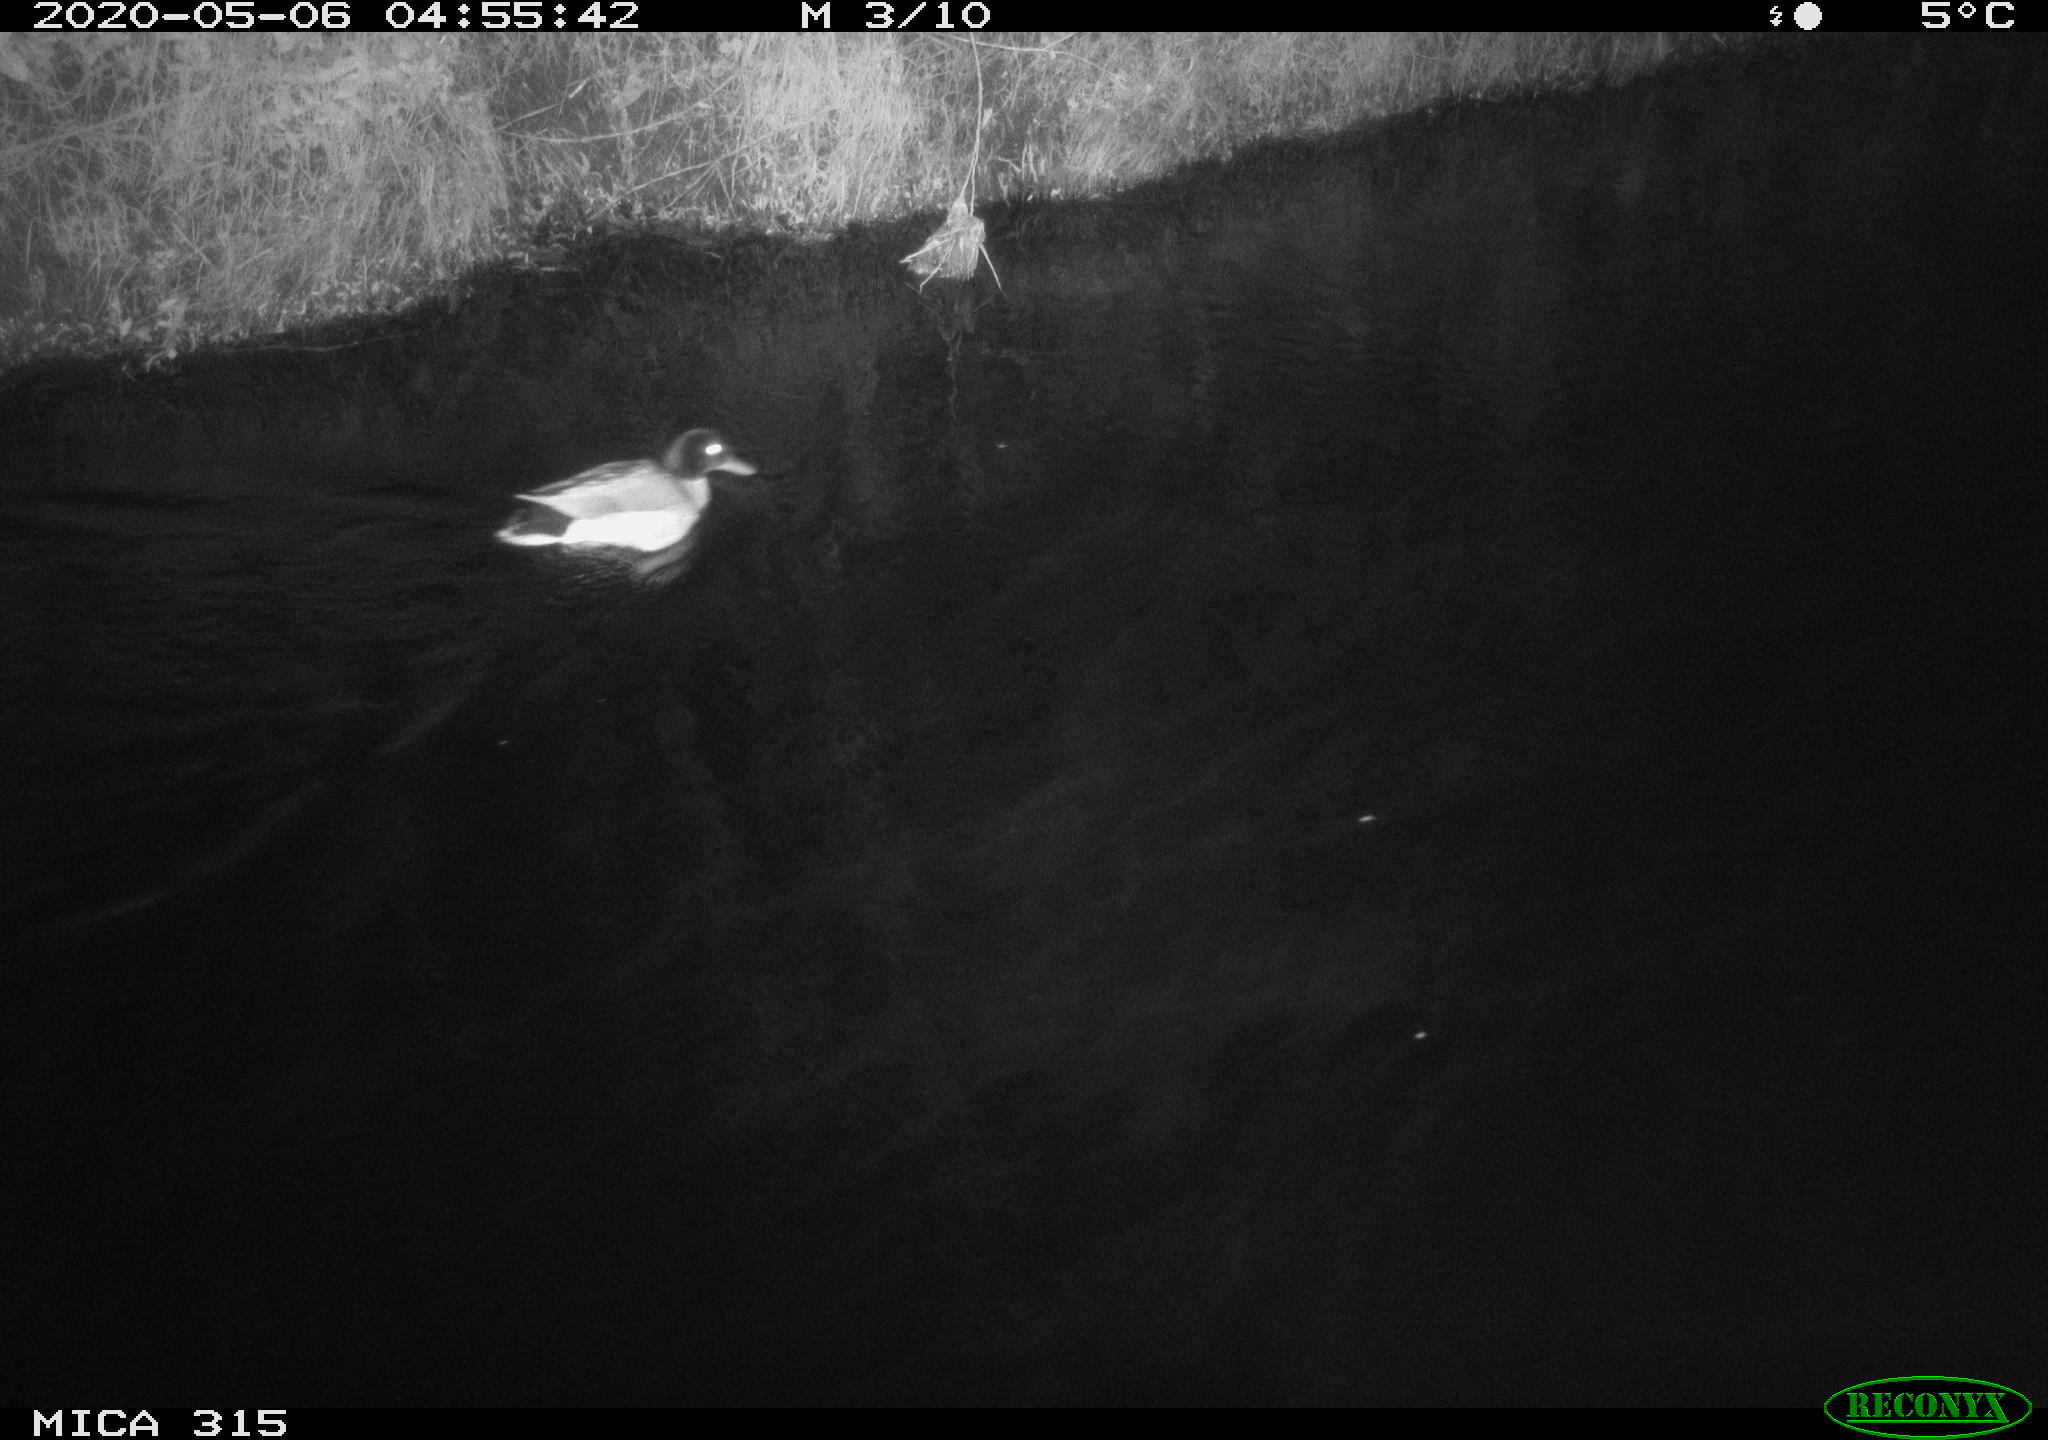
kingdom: Animalia
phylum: Chordata
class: Aves
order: Gruiformes
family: Rallidae
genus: Gallinula
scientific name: Gallinula chloropus
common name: Common moorhen
